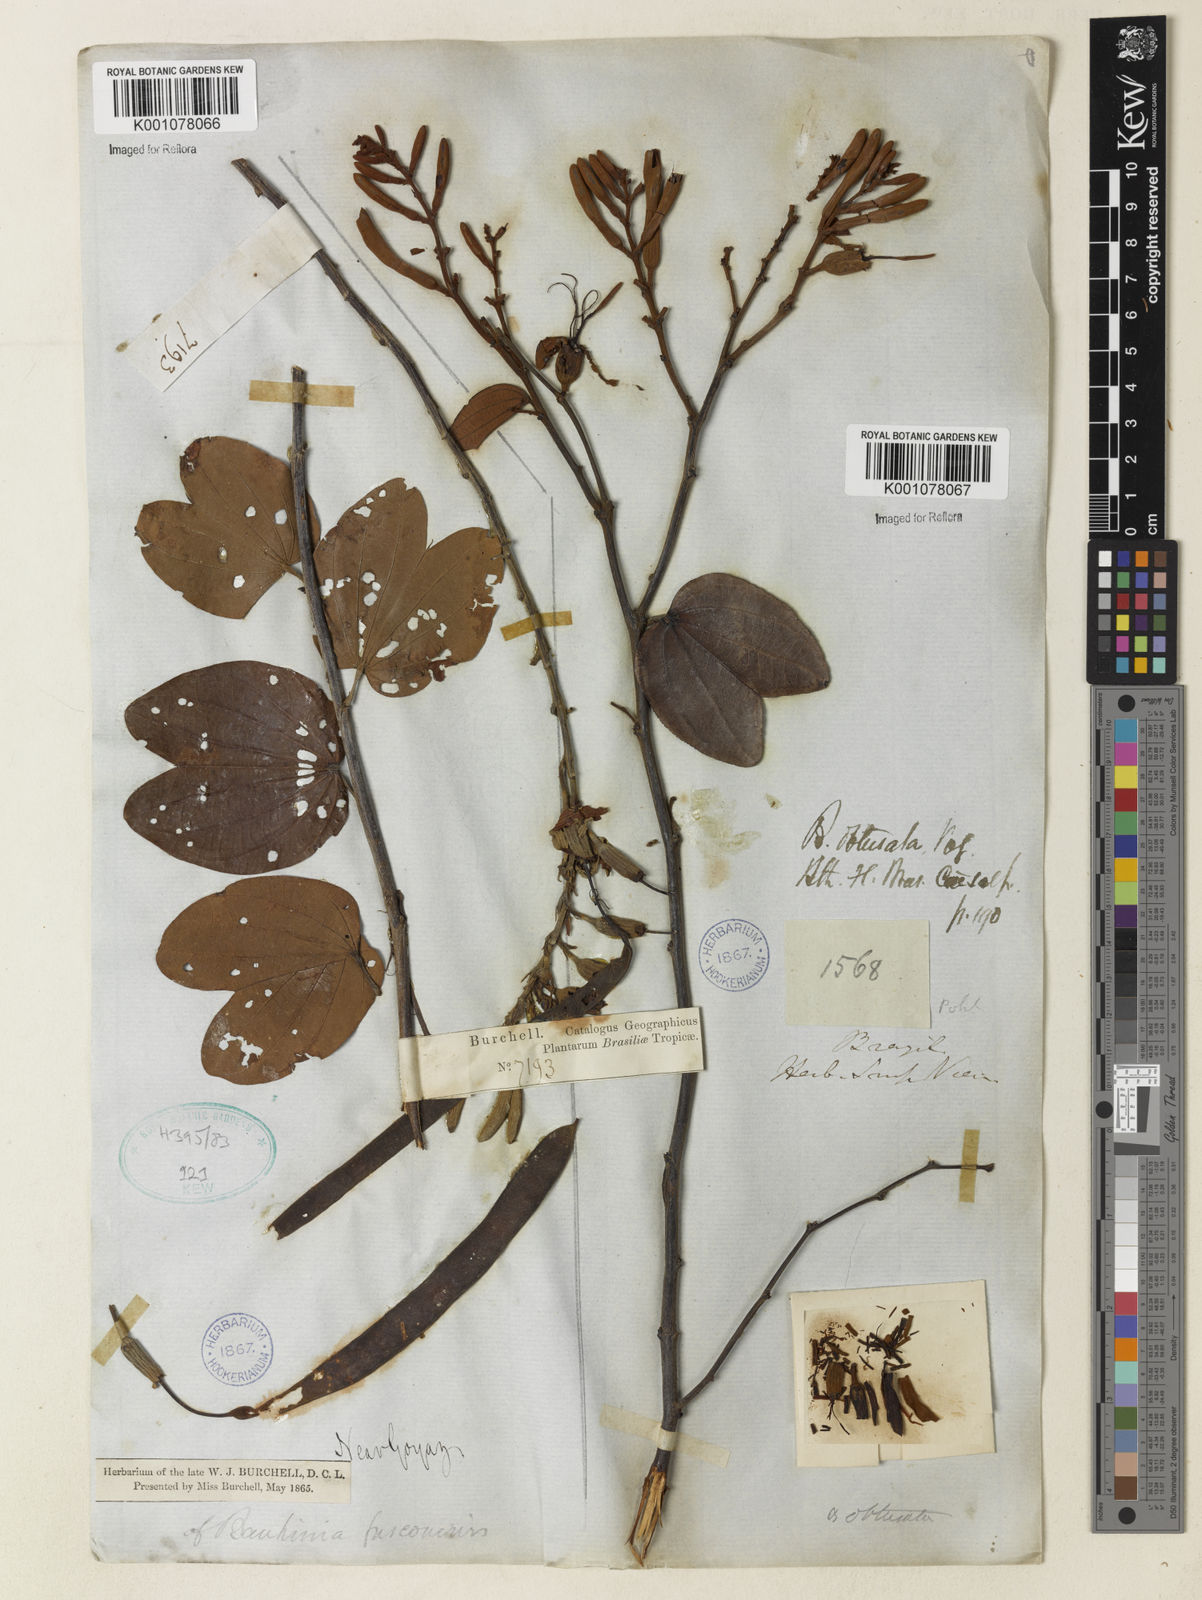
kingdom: Plantae
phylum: Tracheophyta
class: Magnoliopsida
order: Fabales
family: Fabaceae
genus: Bauhinia
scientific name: Bauhinia longifolia
